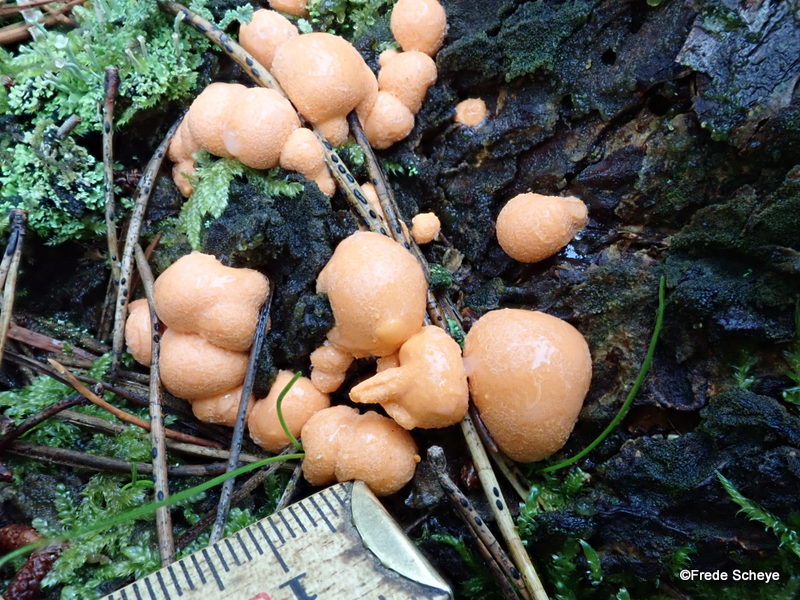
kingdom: Protozoa
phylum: Mycetozoa
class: Myxomycetes
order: Cribrariales
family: Tubiferaceae
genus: Lycogala
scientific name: Lycogala epidendrum
